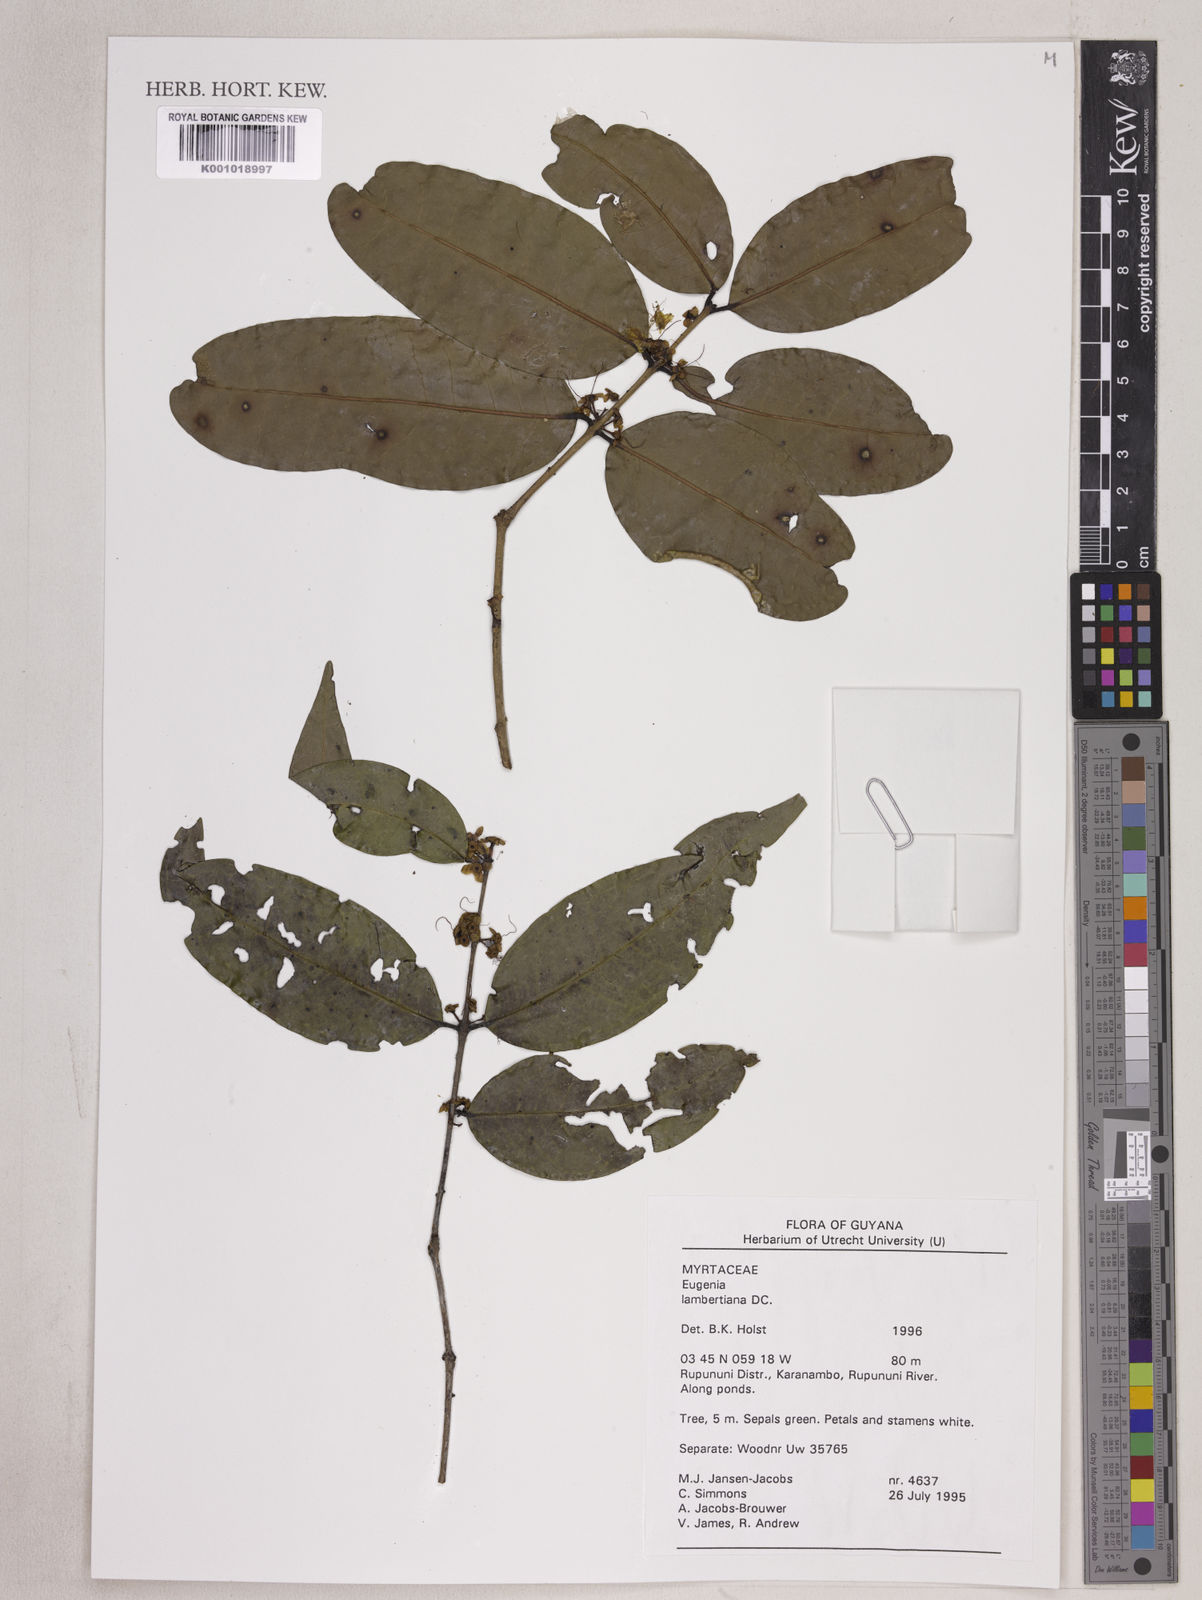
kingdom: Plantae
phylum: Tracheophyta
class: Magnoliopsida
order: Myrtales
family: Myrtaceae
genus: Eugenia
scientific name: Eugenia lambertiana
